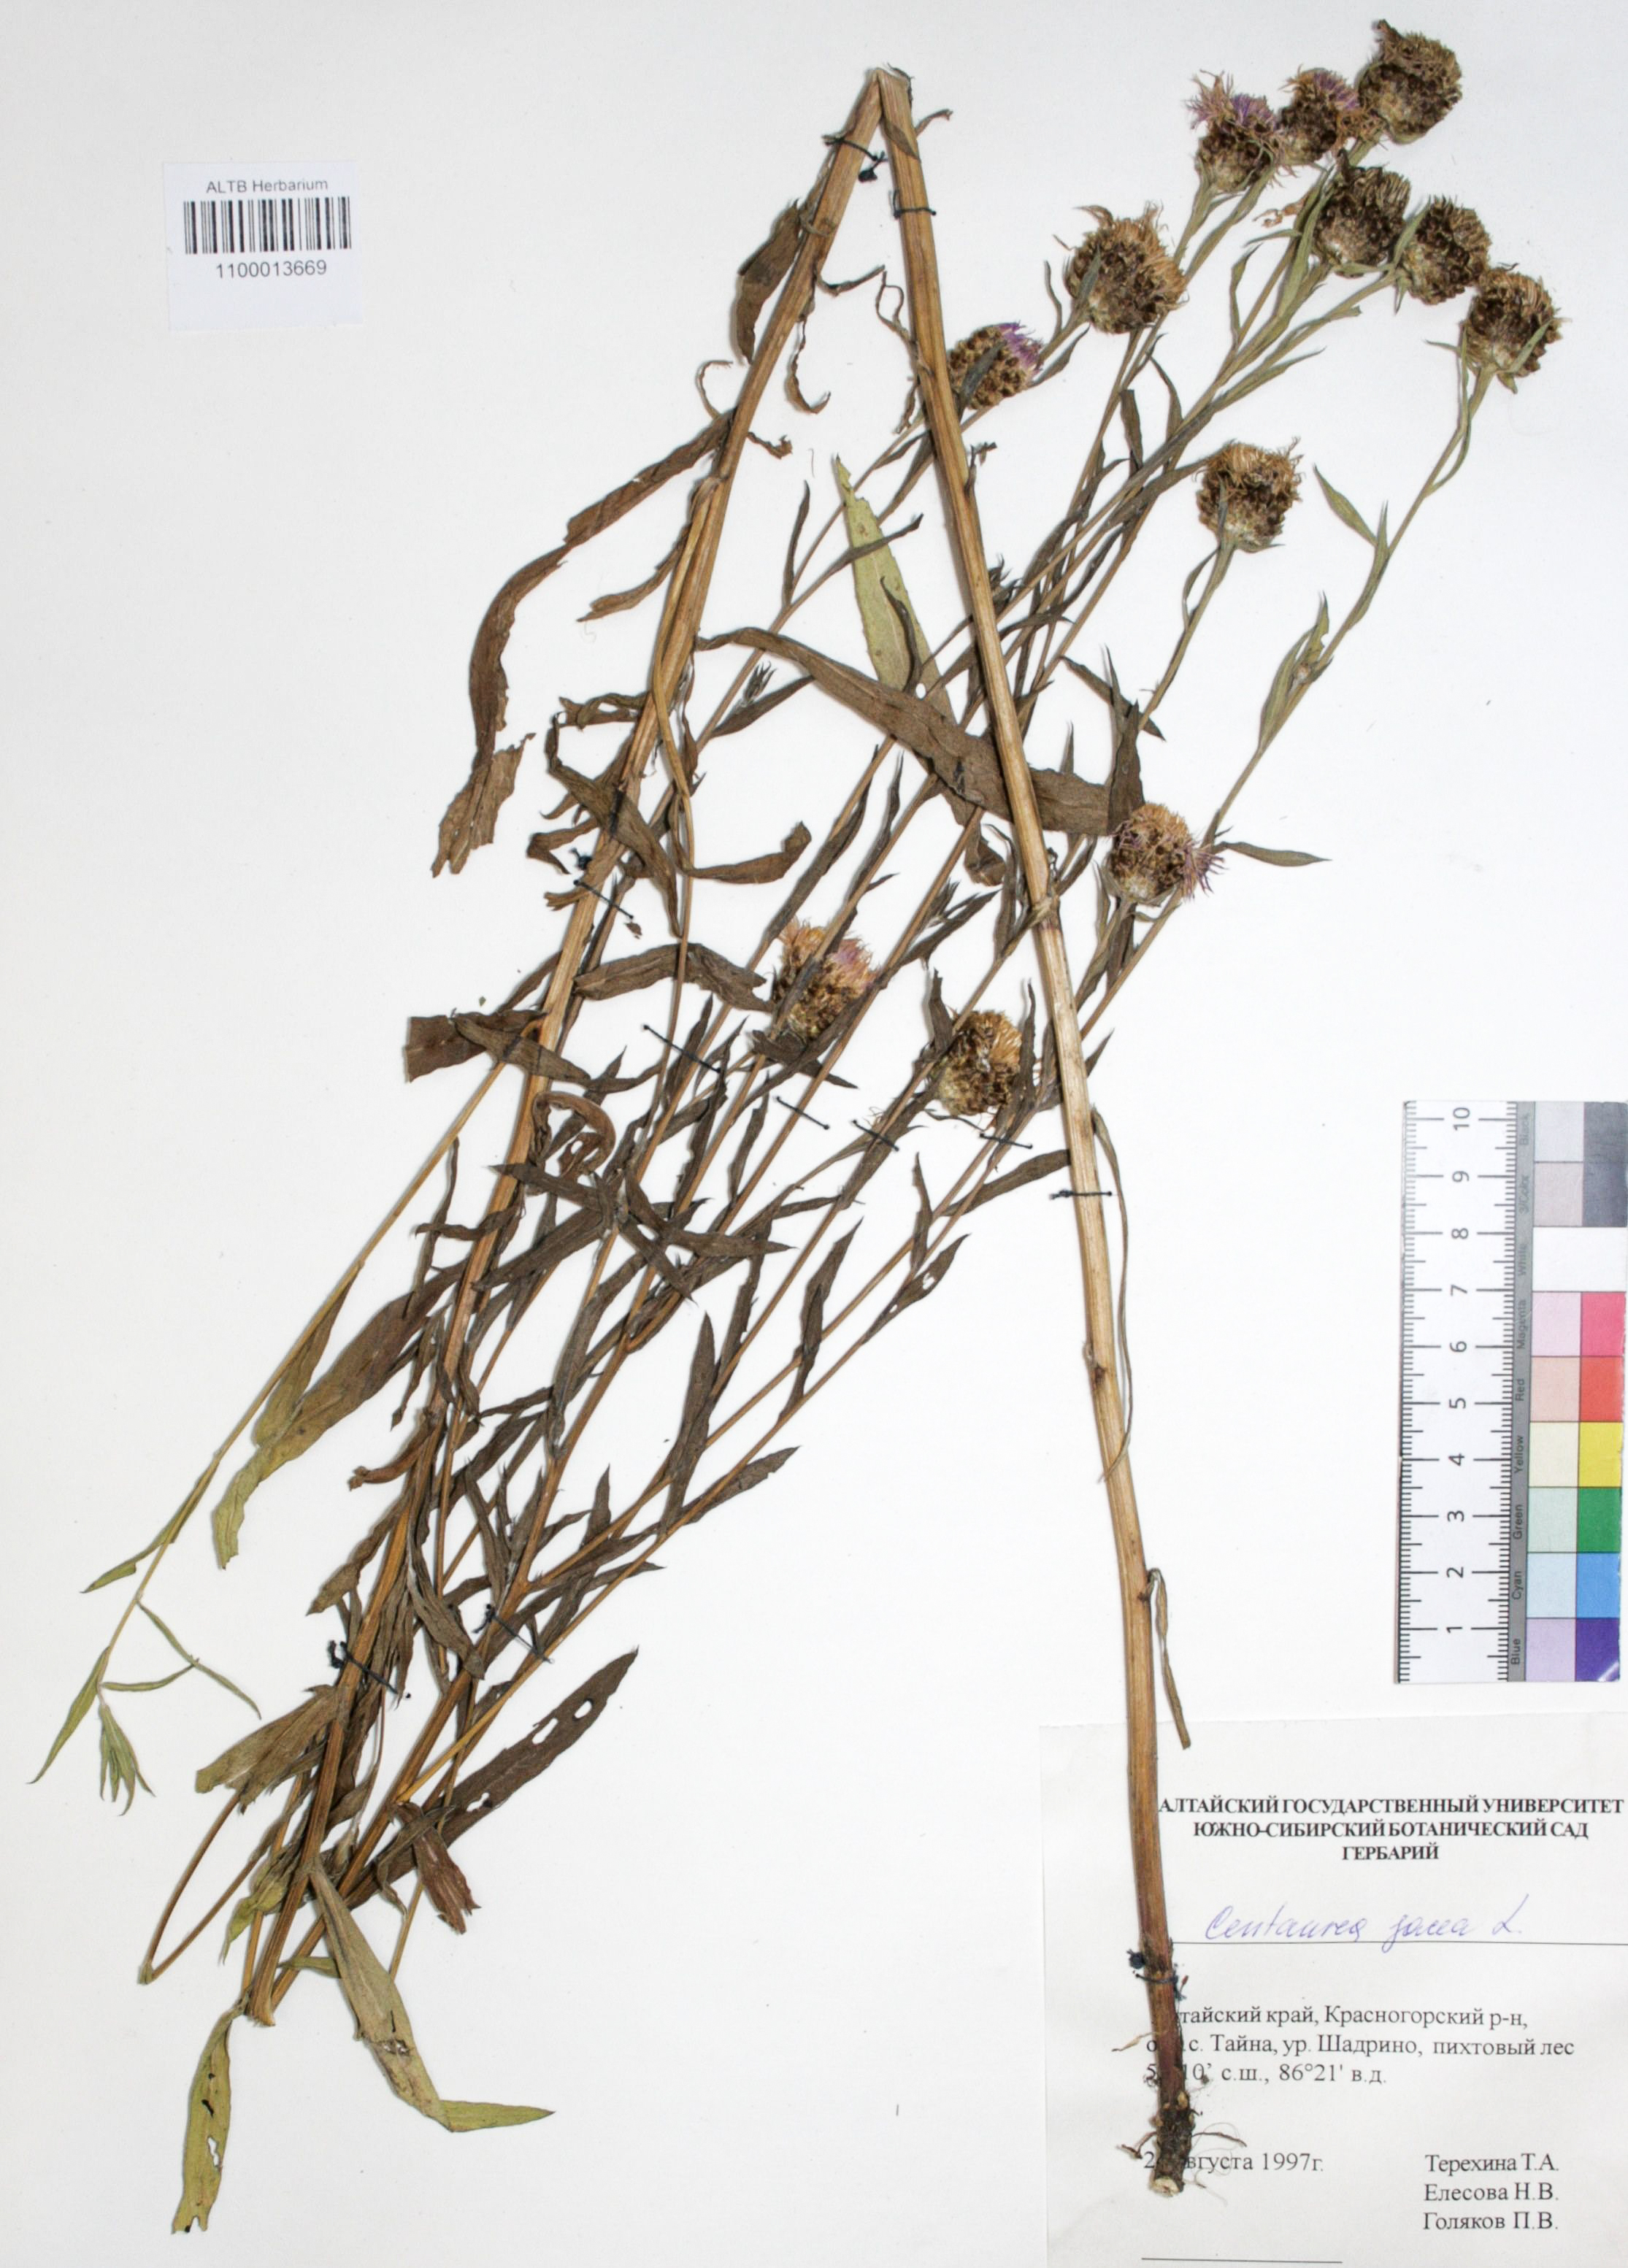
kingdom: Plantae
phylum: Tracheophyta
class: Magnoliopsida
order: Asterales
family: Asteraceae
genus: Centaurea
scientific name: Centaurea jacea
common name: Brown knapweed
